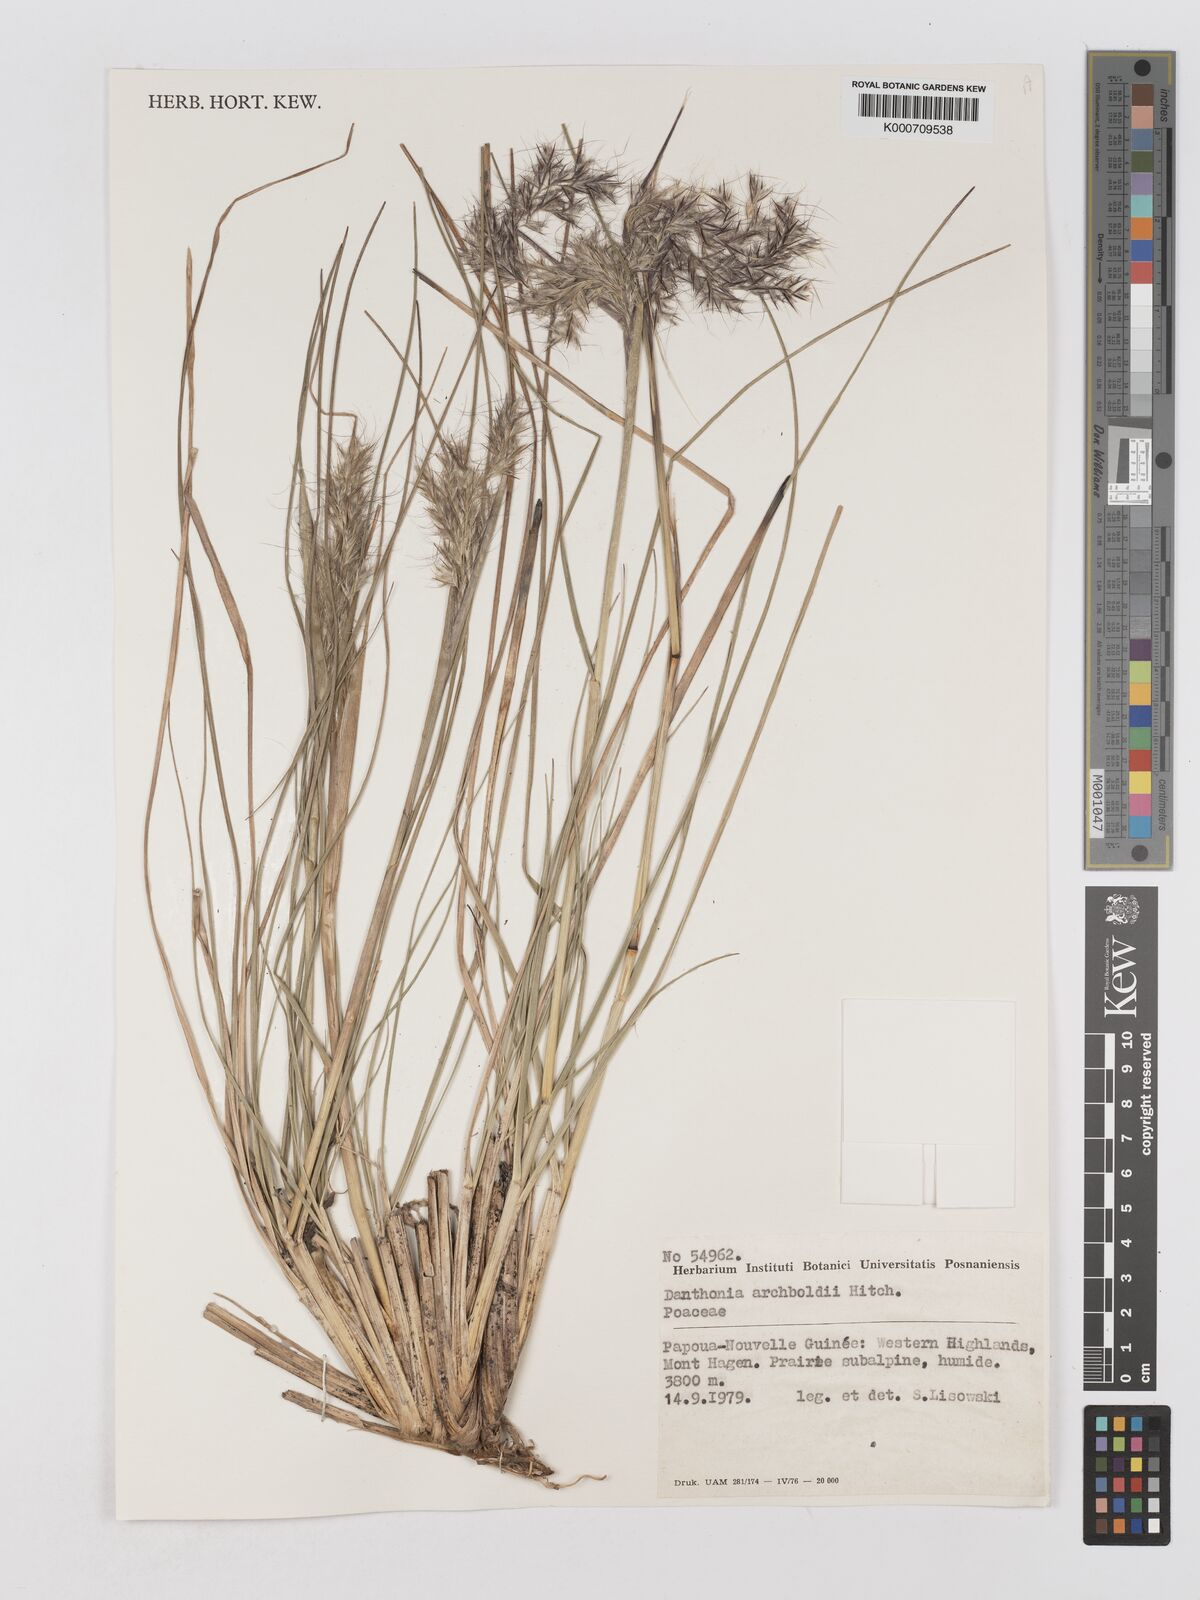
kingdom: Plantae
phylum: Tracheophyta
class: Liliopsida
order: Poales
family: Poaceae
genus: Chimaerochloa
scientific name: Chimaerochloa archboldii
